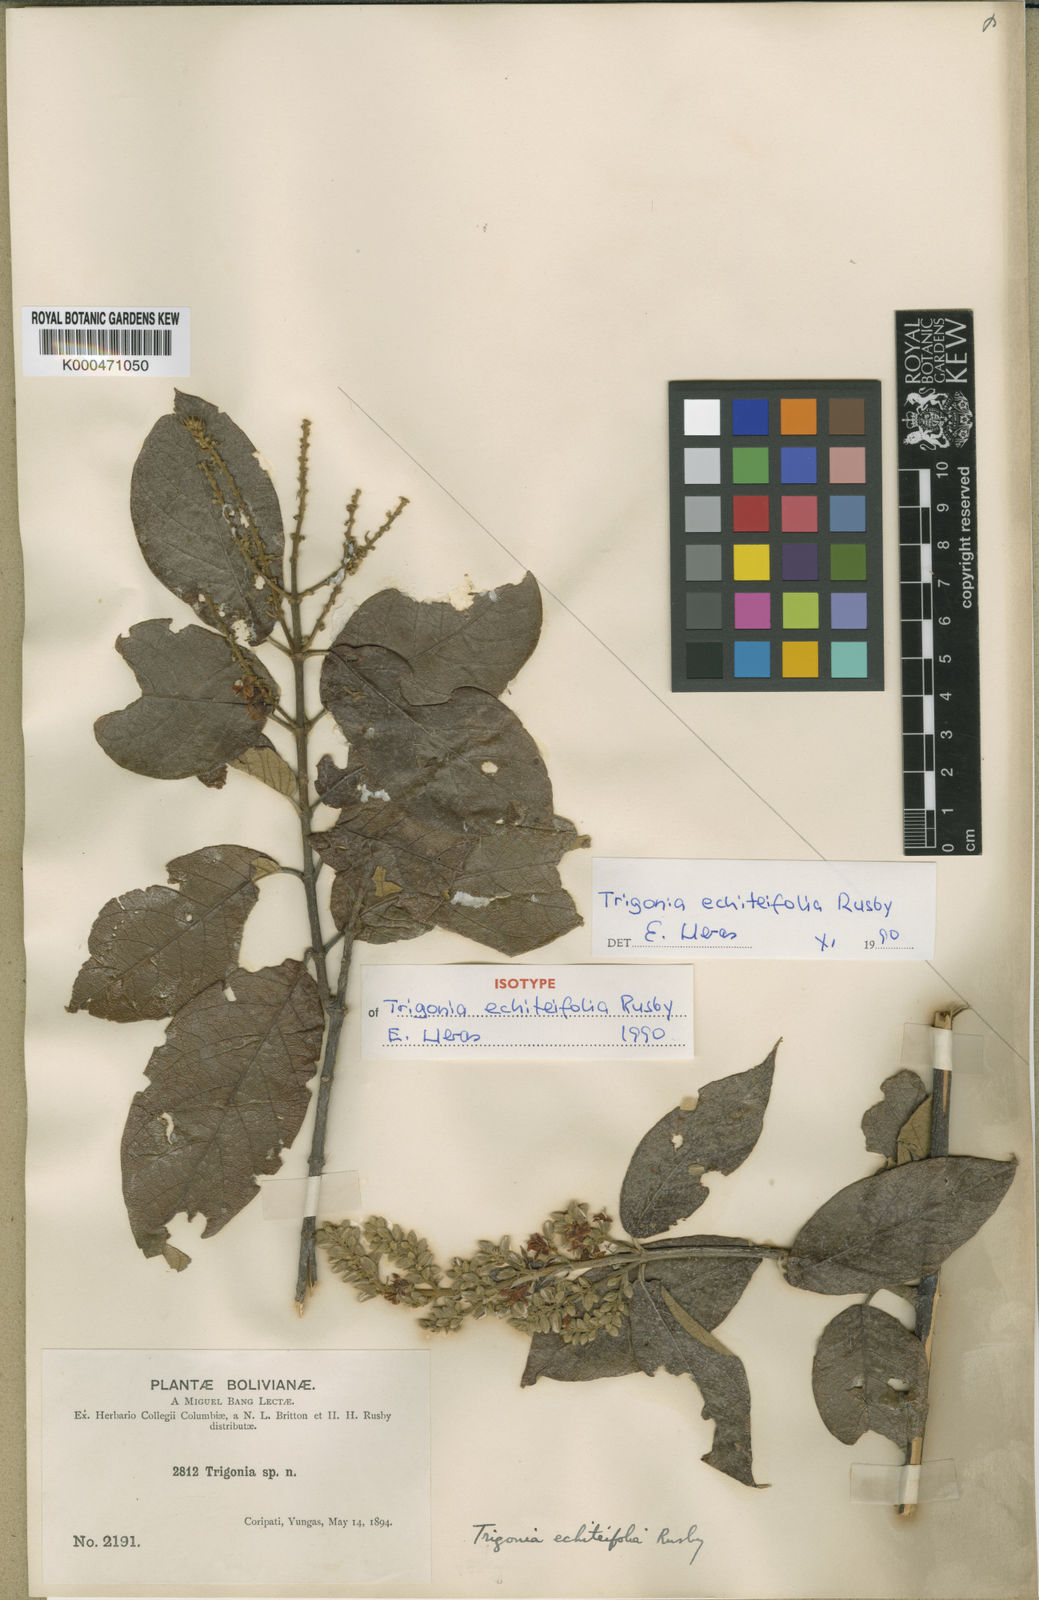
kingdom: Plantae
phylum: Tracheophyta
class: Magnoliopsida
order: Malpighiales
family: Trigoniaceae
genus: Trigonia
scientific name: Trigonia floccosa
